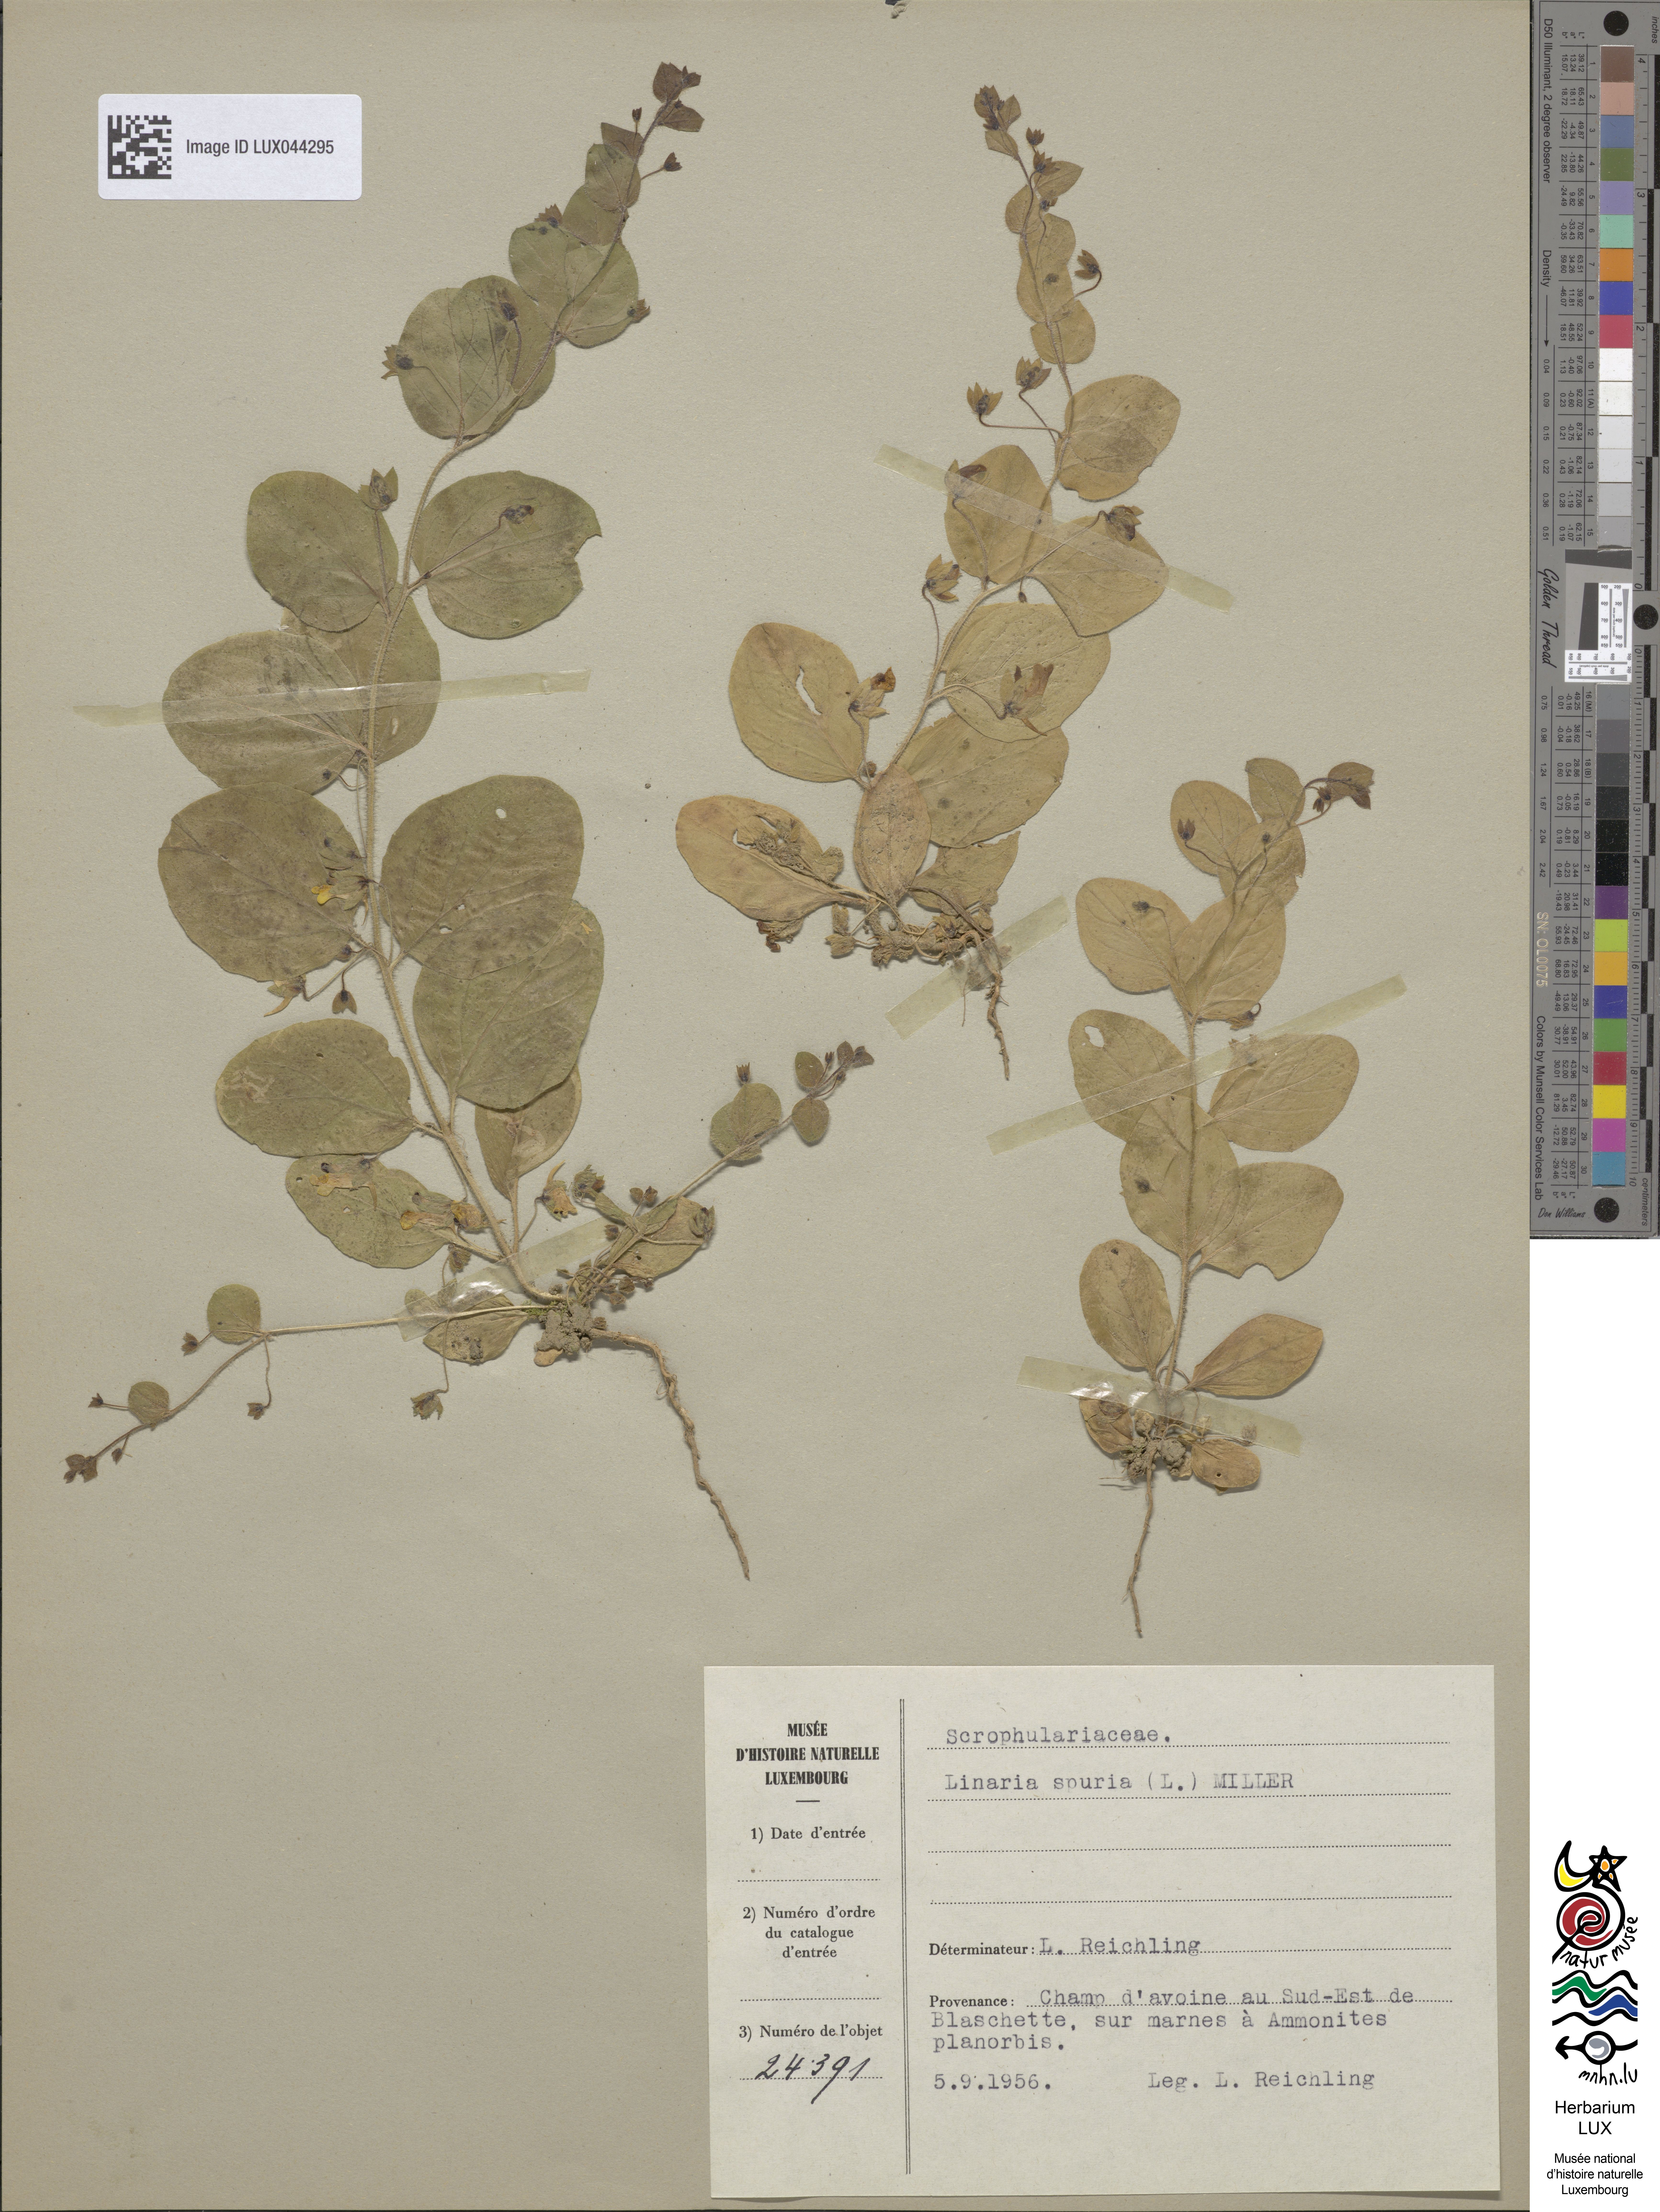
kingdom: Plantae
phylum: Tracheophyta
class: Magnoliopsida
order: Lamiales
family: Plantaginaceae
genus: Kickxia
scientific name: Kickxia spuria
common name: Round-leaved fluellen
